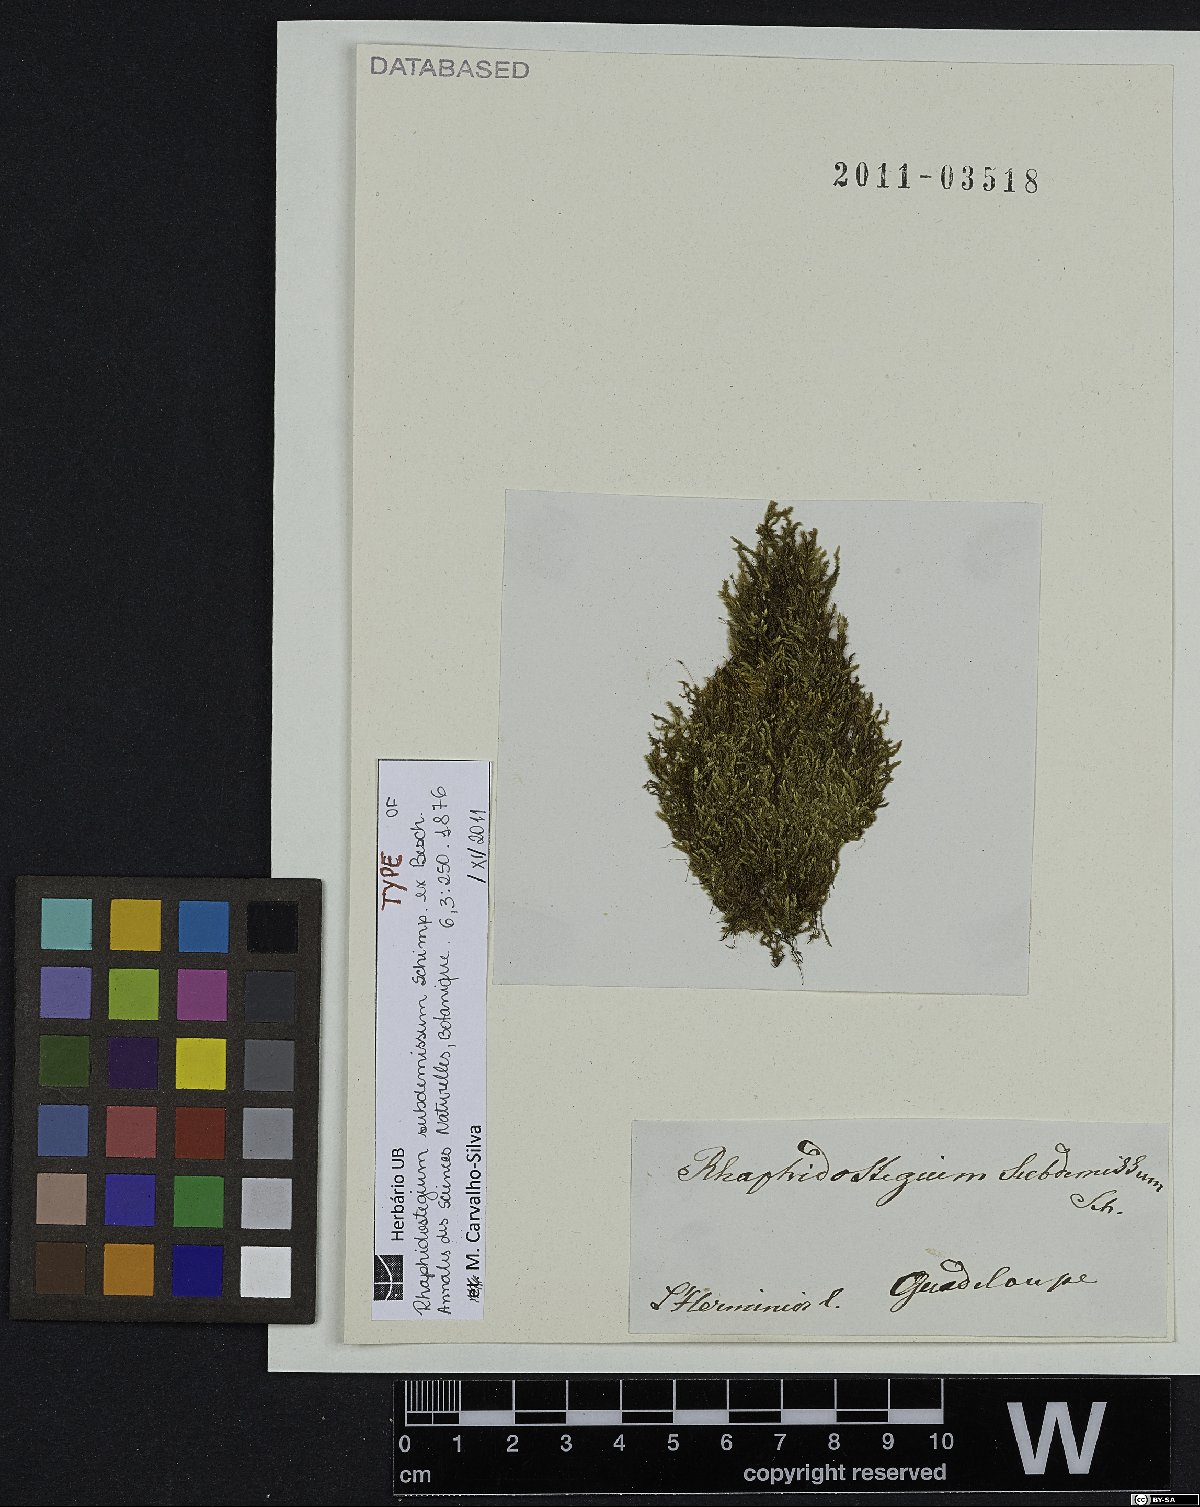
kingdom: Plantae
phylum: Bryophyta
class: Bryopsida
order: Hypnales
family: Sematophyllaceae
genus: Trichosteleum
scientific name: Trichosteleum fluviale
